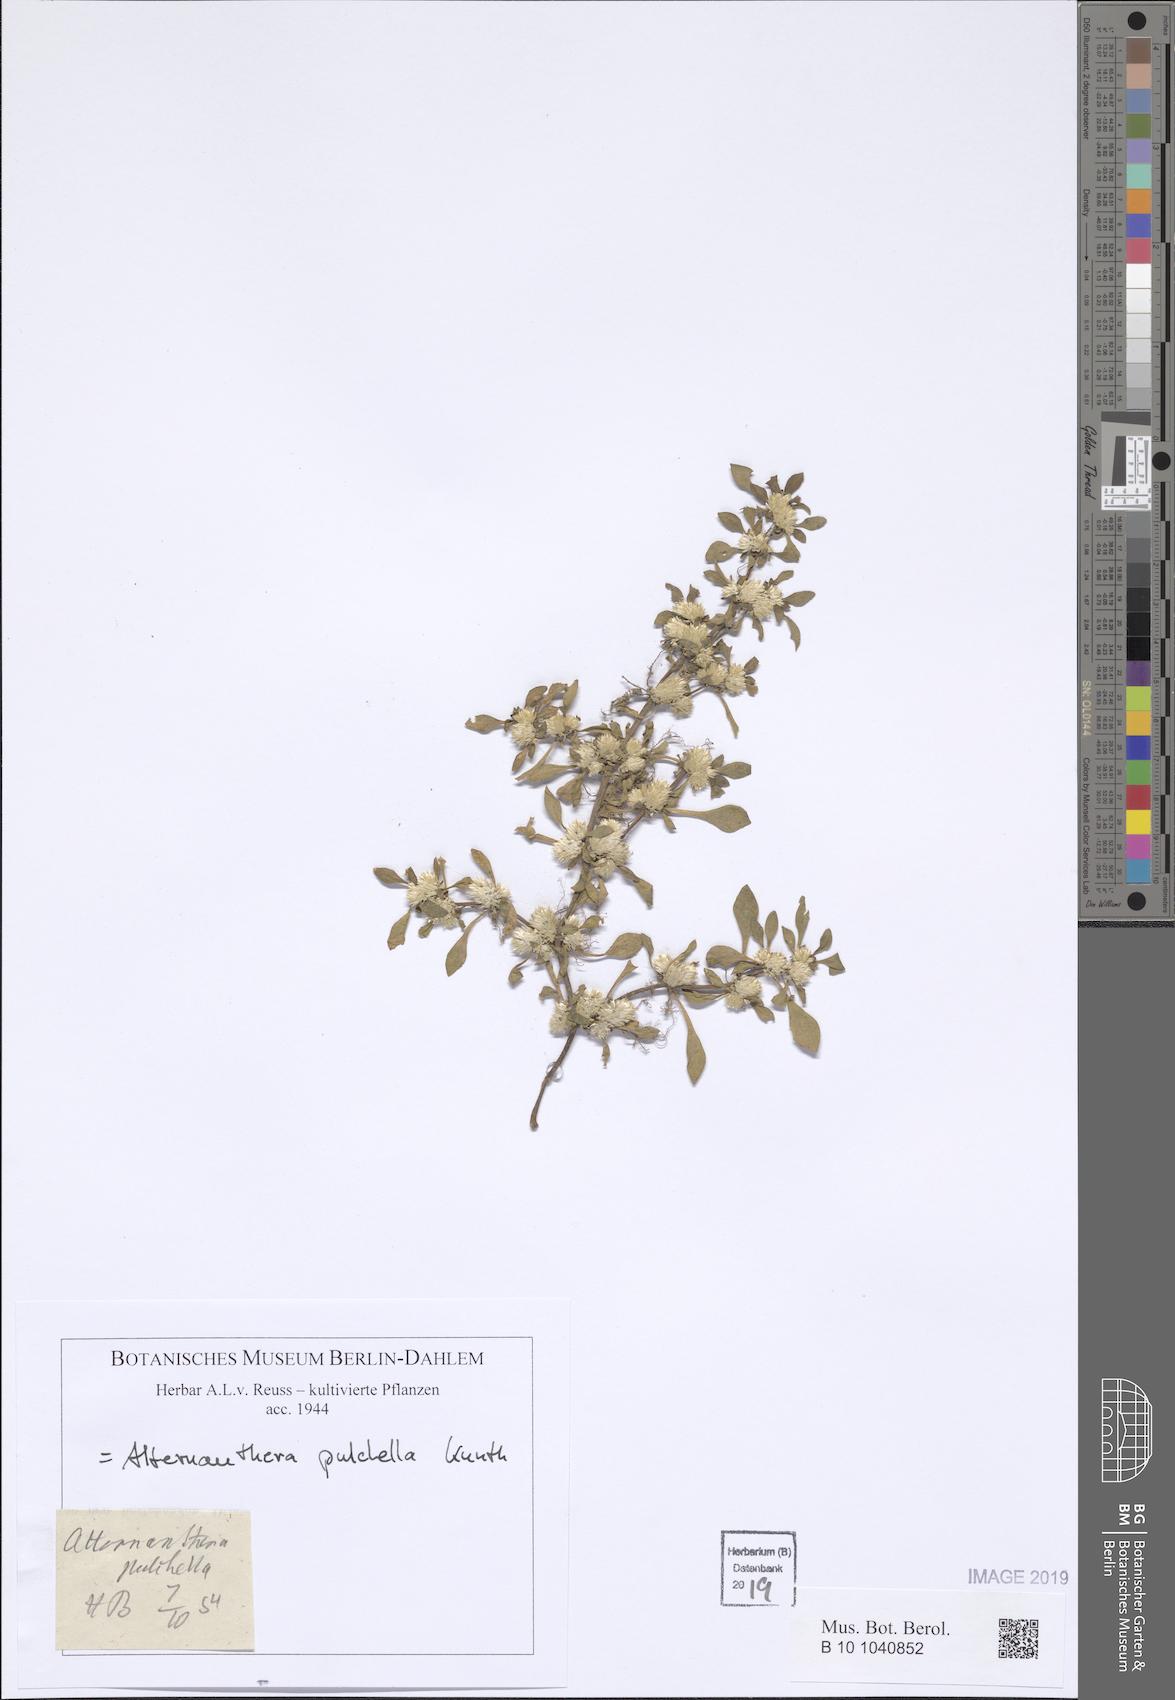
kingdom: Plantae
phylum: Tracheophyta
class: Magnoliopsida
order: Caryophyllales
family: Amaranthaceae
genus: Alternanthera
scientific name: Alternanthera pulchella
